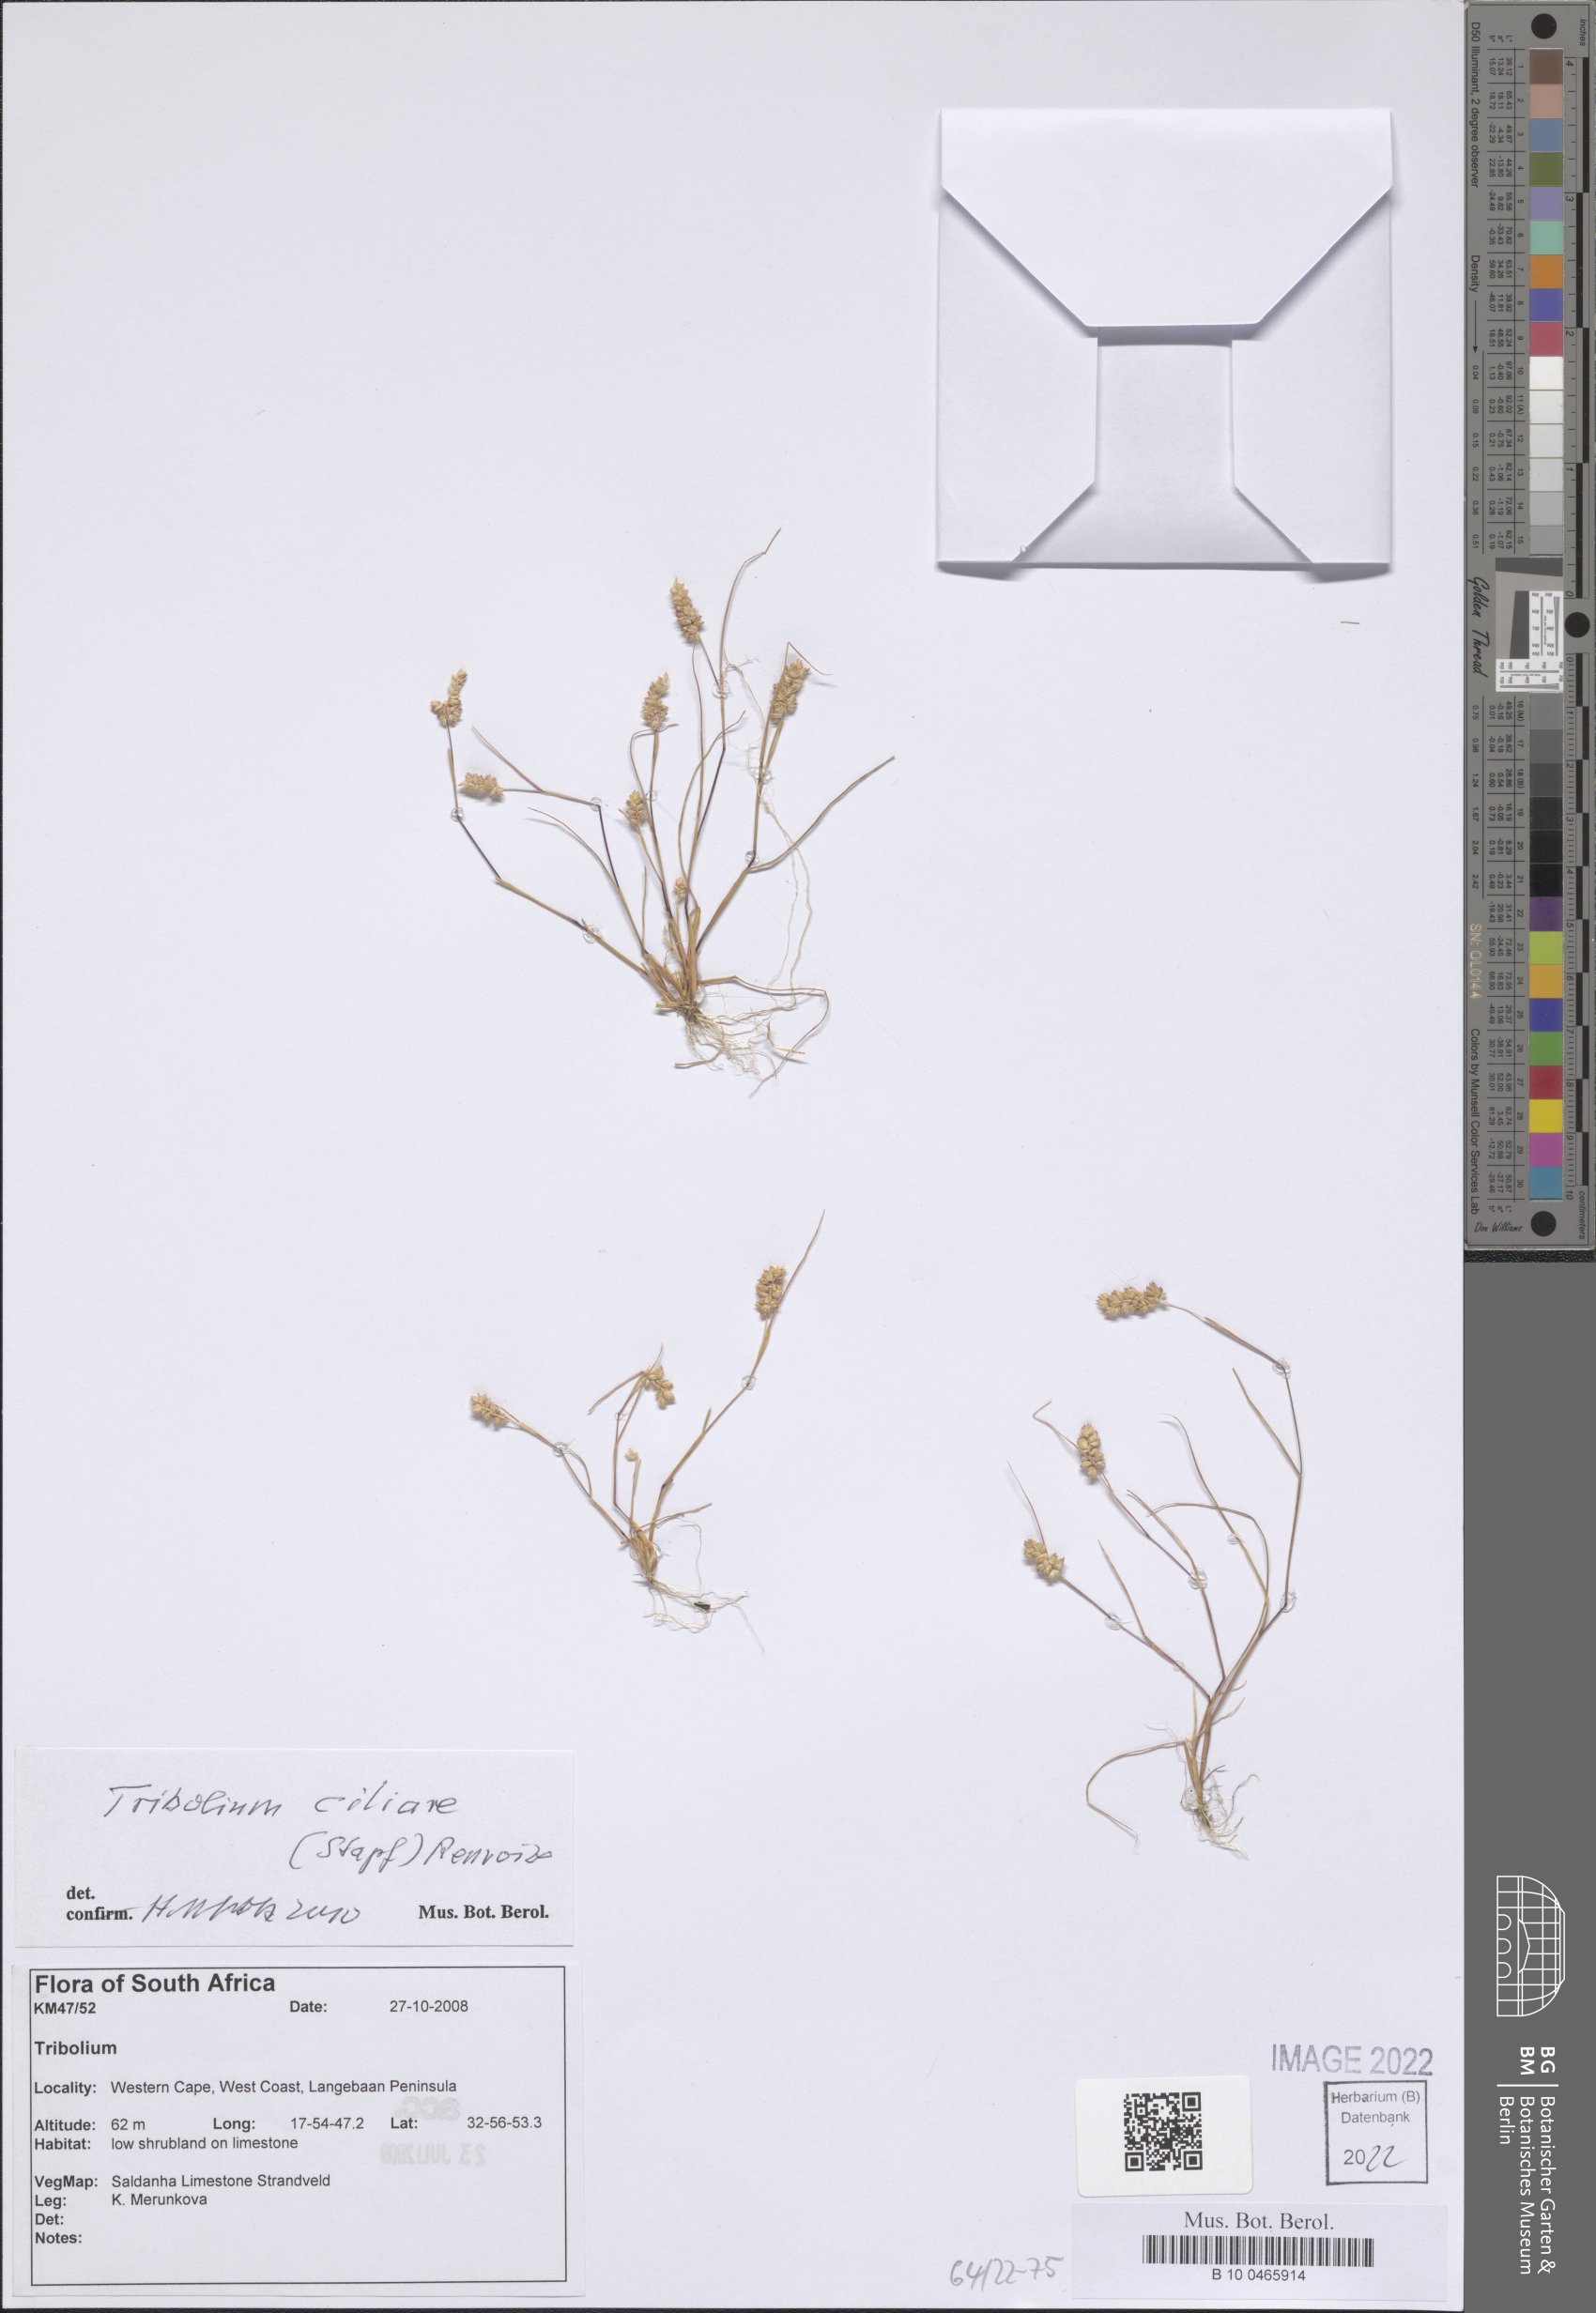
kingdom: Plantae
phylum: Tracheophyta
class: Liliopsida
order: Poales
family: Poaceae
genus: Tribolium
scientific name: Tribolium ciliare
